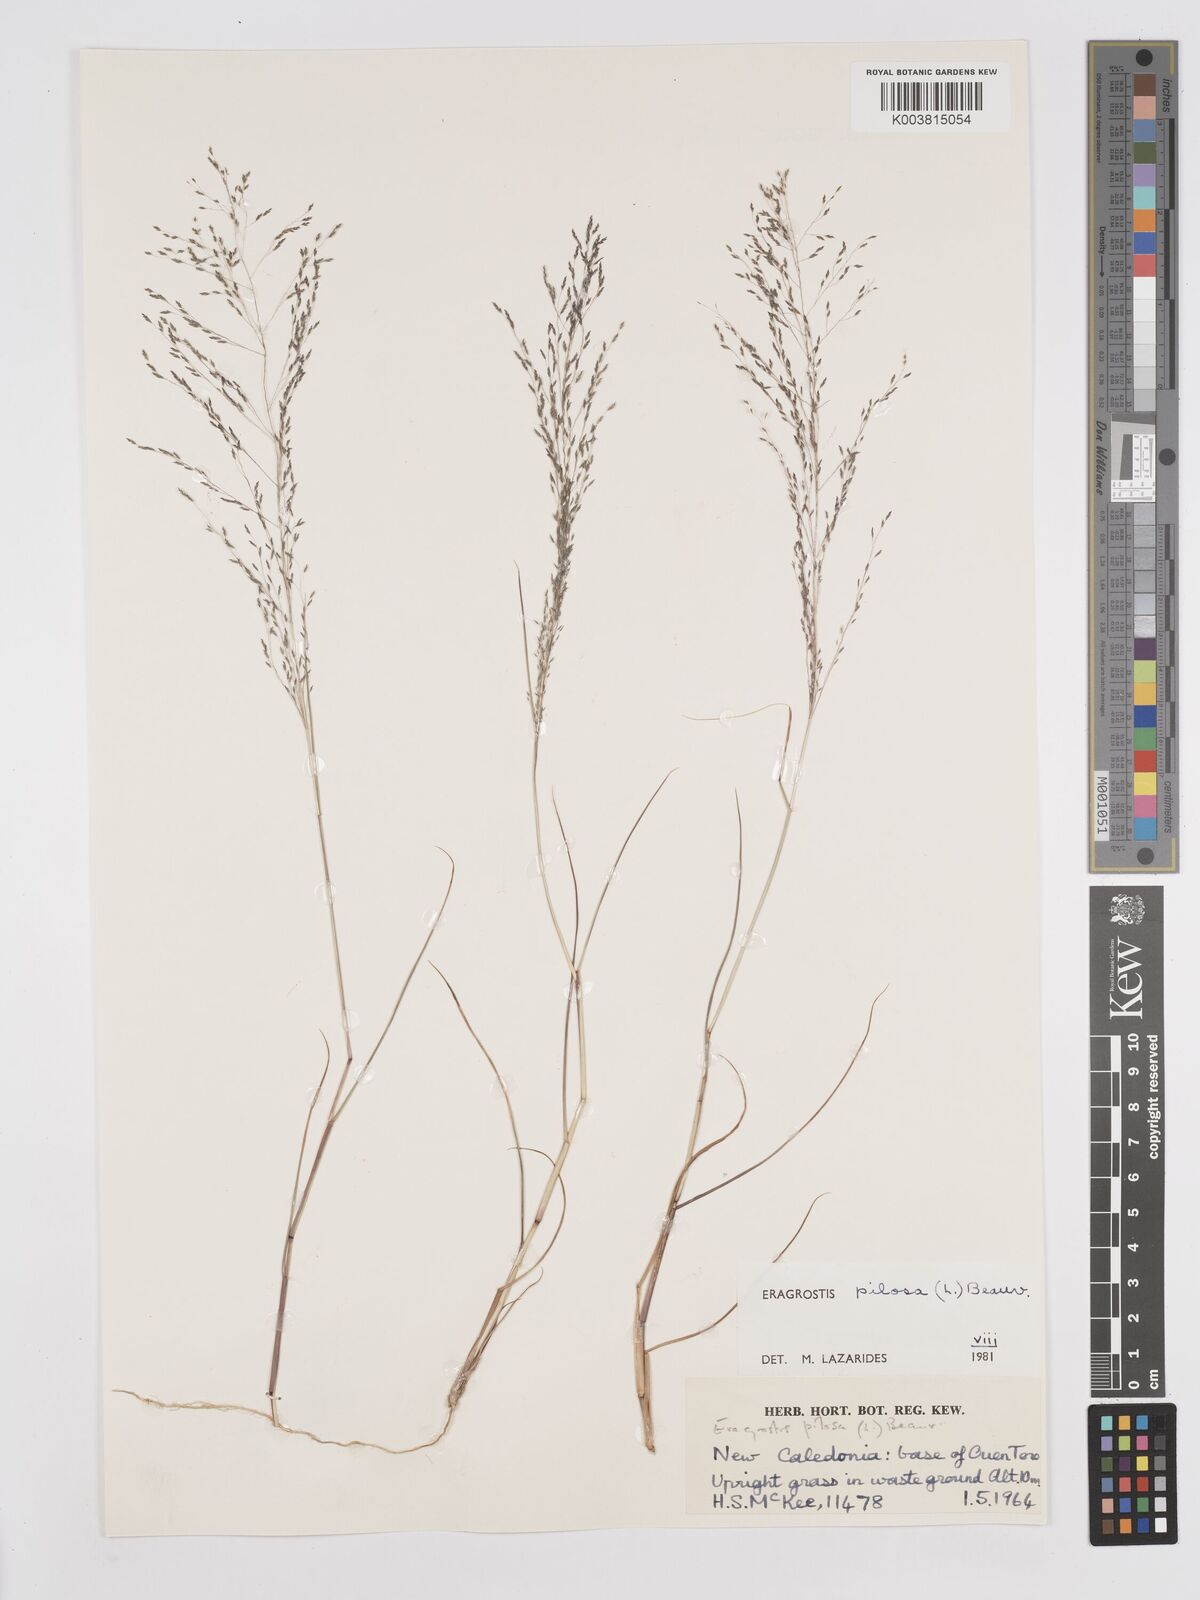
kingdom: Plantae
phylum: Tracheophyta
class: Liliopsida
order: Poales
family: Poaceae
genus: Eragrostis
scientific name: Eragrostis pilosa
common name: Indian lovegrass
